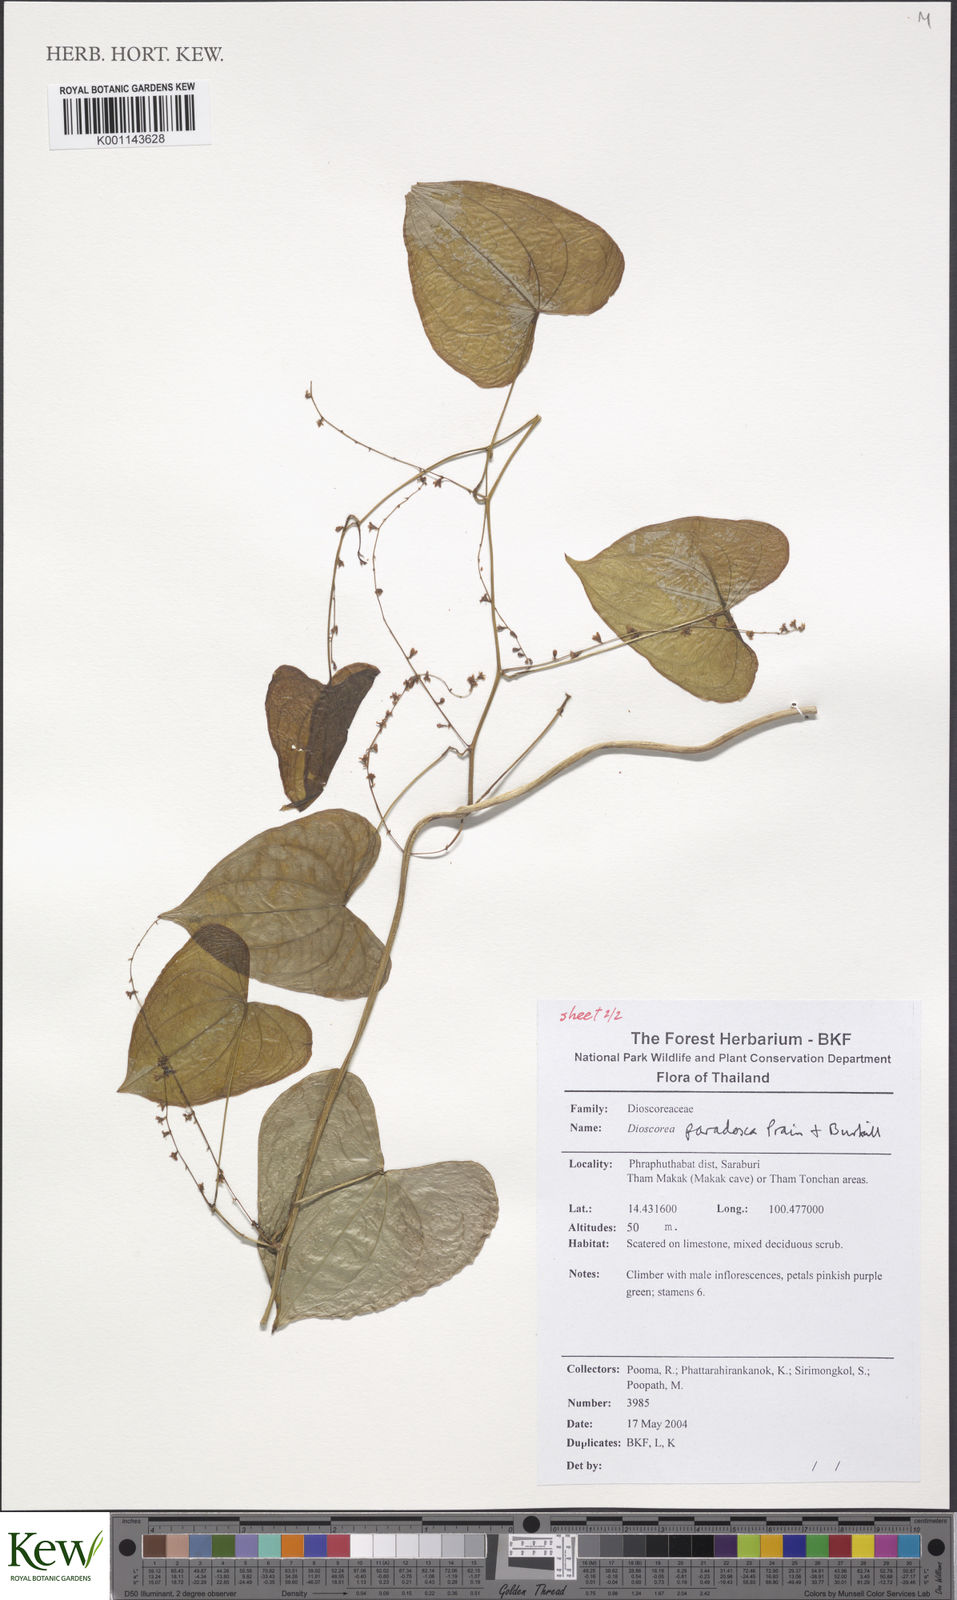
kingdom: Plantae
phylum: Tracheophyta
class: Liliopsida
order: Dioscoreales
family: Dioscoreaceae
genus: Dioscorea
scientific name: Dioscorea paradoxa
